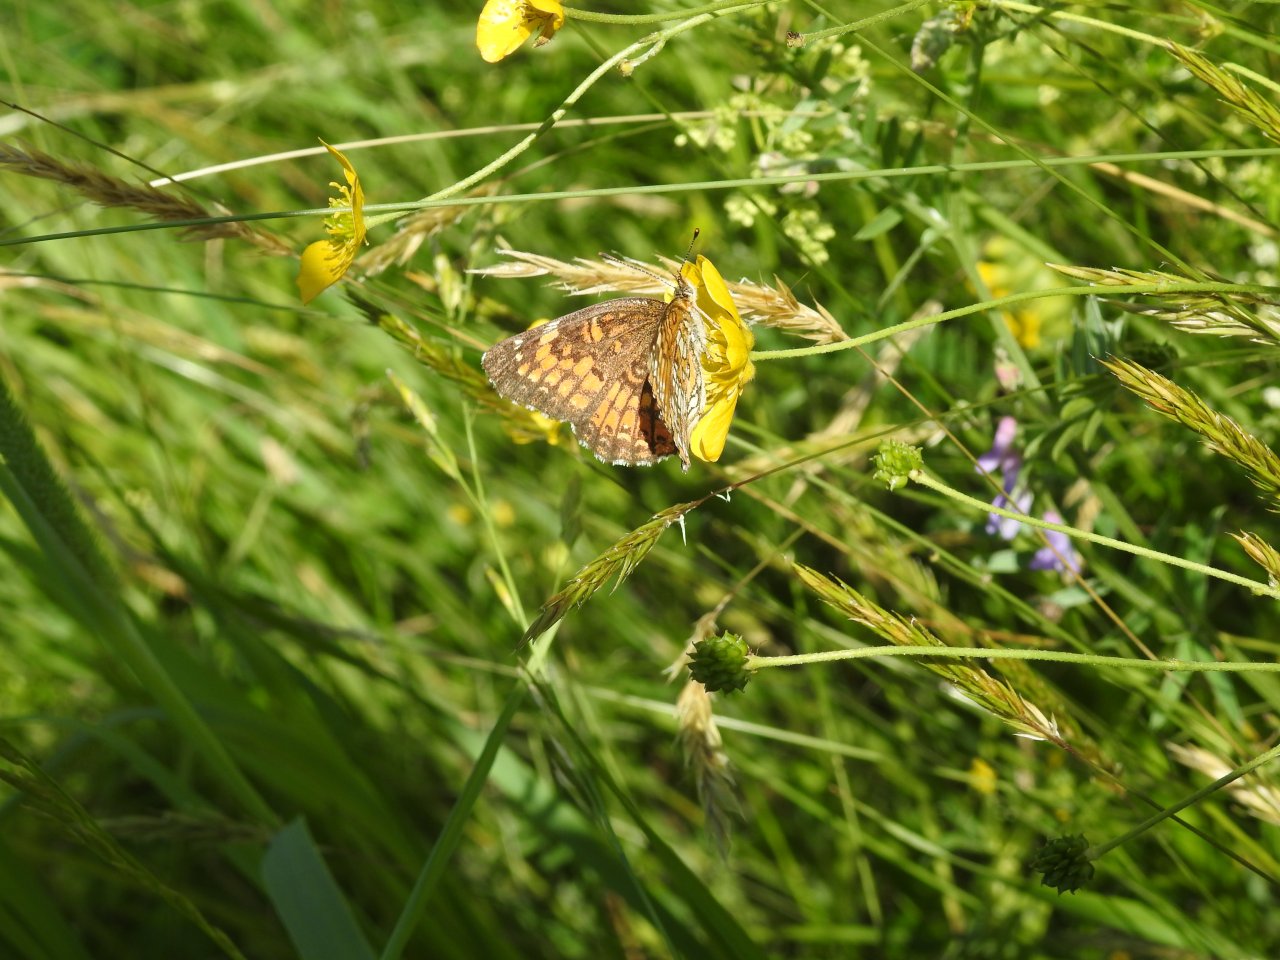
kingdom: Animalia
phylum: Arthropoda
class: Insecta
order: Lepidoptera
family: Nymphalidae
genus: Chlosyne
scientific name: Chlosyne harrisii
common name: Harris's Checkerspot
